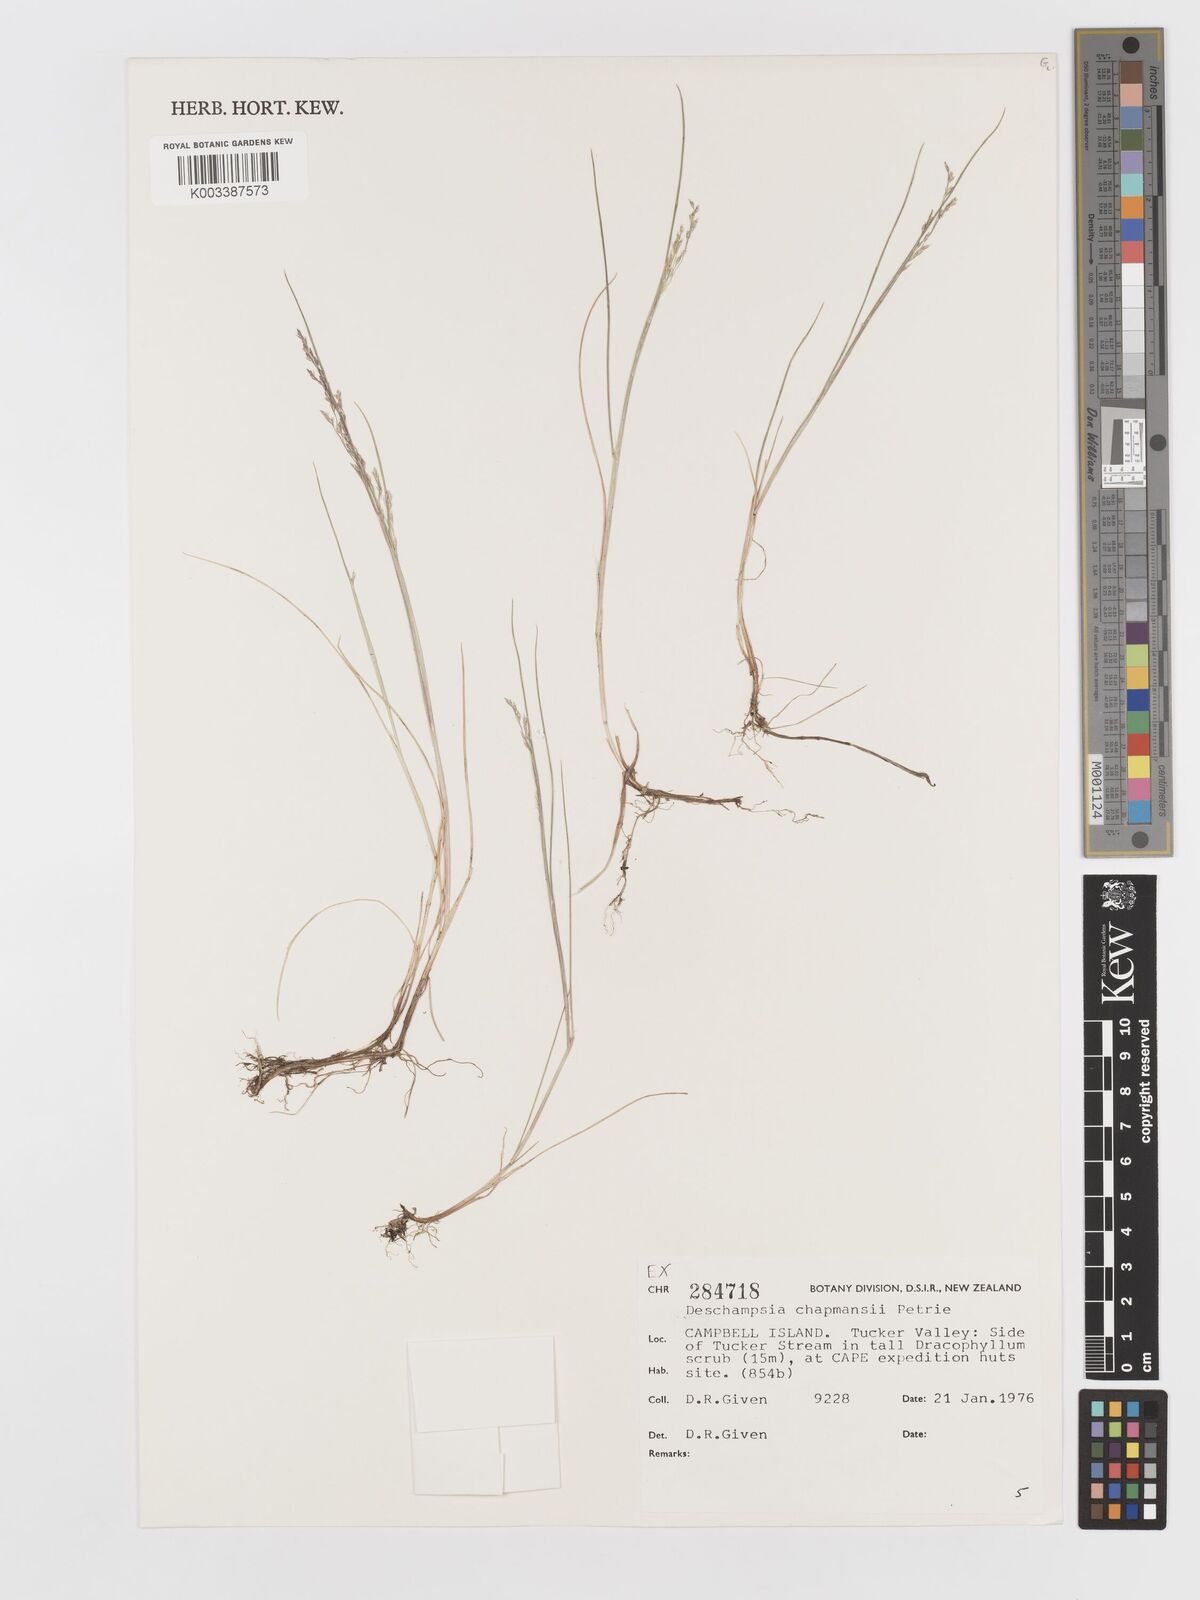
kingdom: Plantae
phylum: Tracheophyta
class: Liliopsida
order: Poales
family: Poaceae
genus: Deschampsia
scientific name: Deschampsia chapmanii
